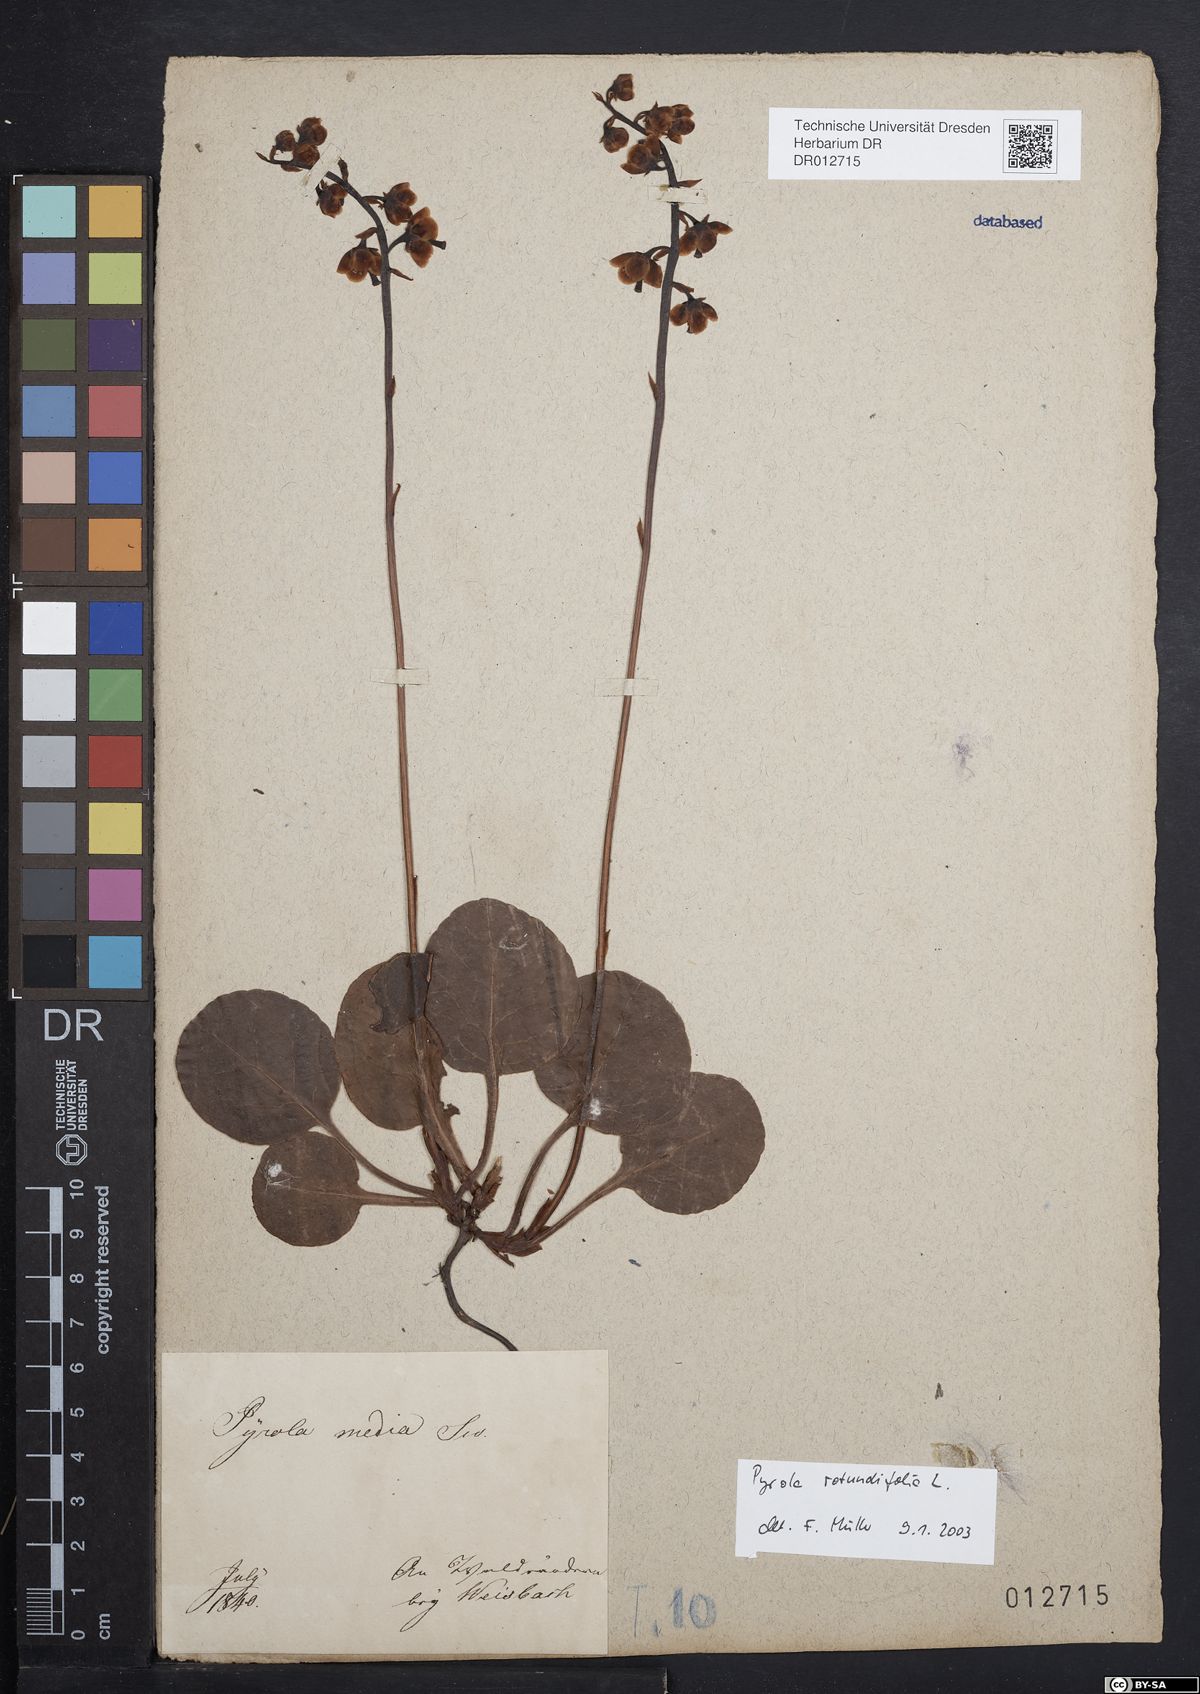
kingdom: Plantae
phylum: Tracheophyta
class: Magnoliopsida
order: Ericales
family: Ericaceae
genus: Pyrola
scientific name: Pyrola rotundifolia
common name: Round-leaved wintergreen
